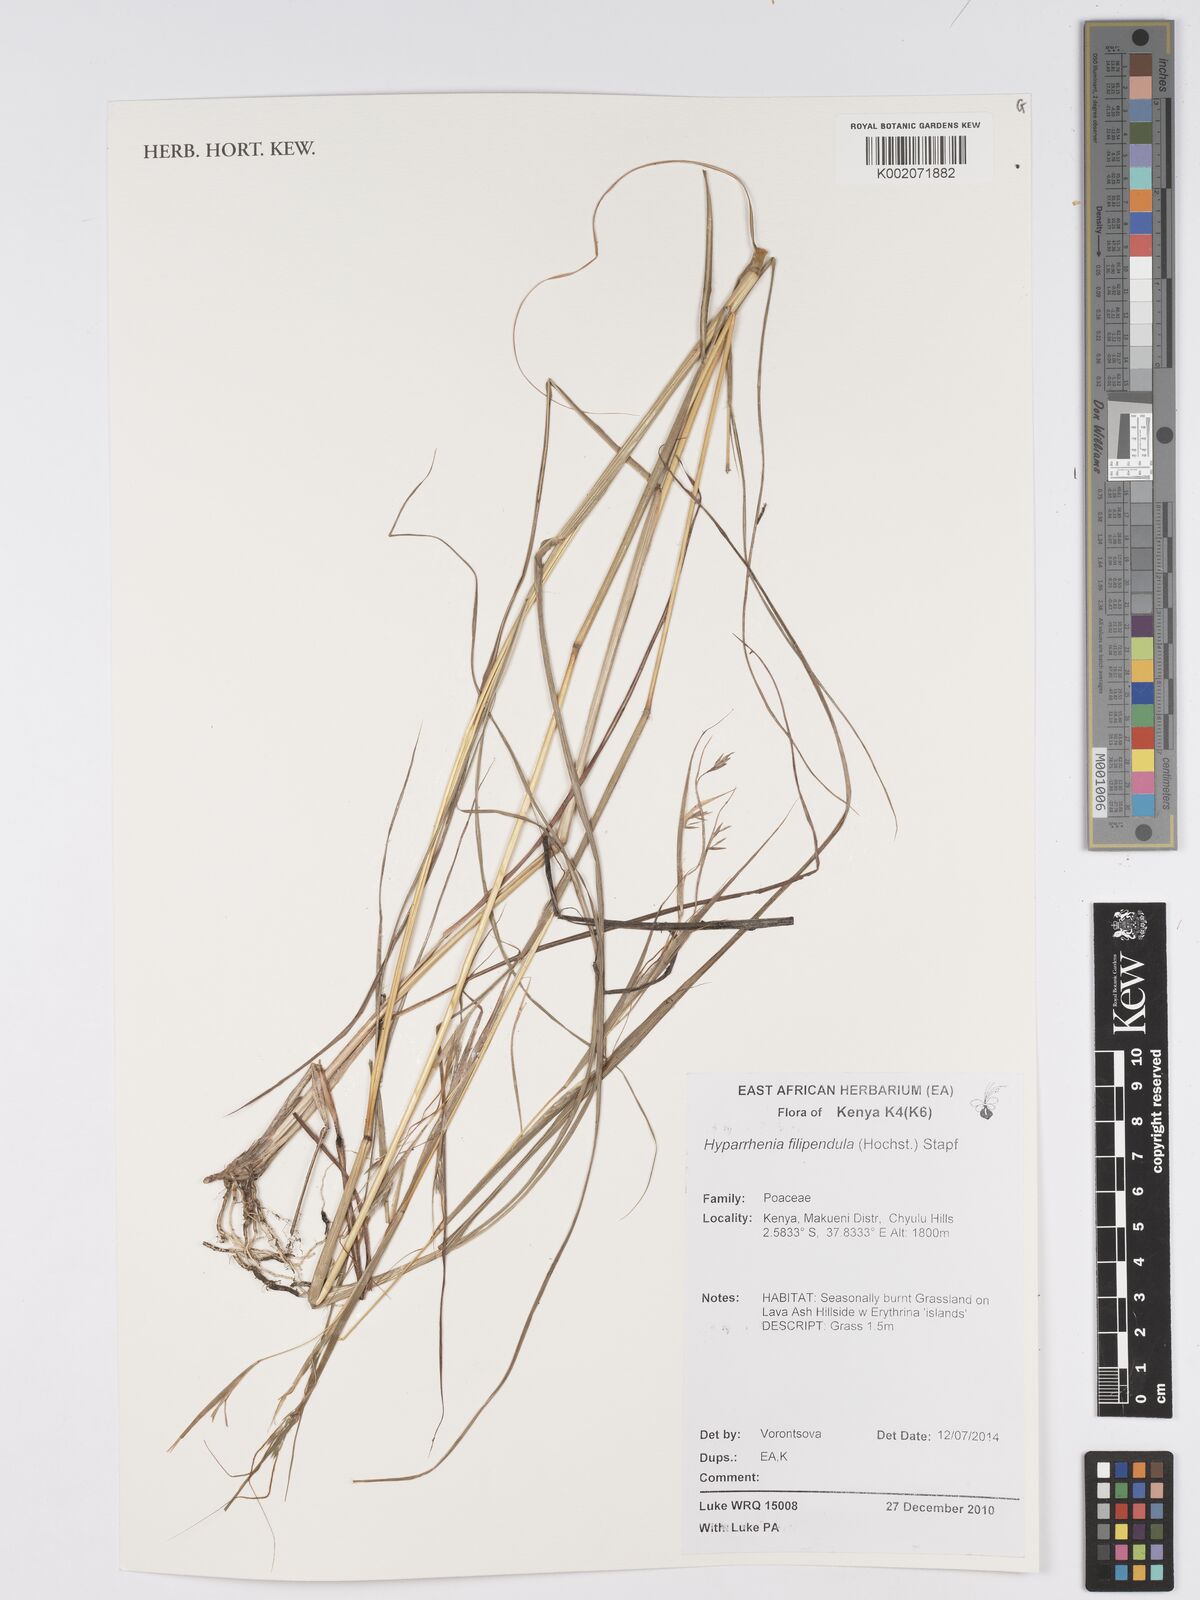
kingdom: Plantae
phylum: Tracheophyta
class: Liliopsida
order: Poales
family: Poaceae
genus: Hyparrhenia
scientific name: Hyparrhenia filipendula
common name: Tambookie grass
